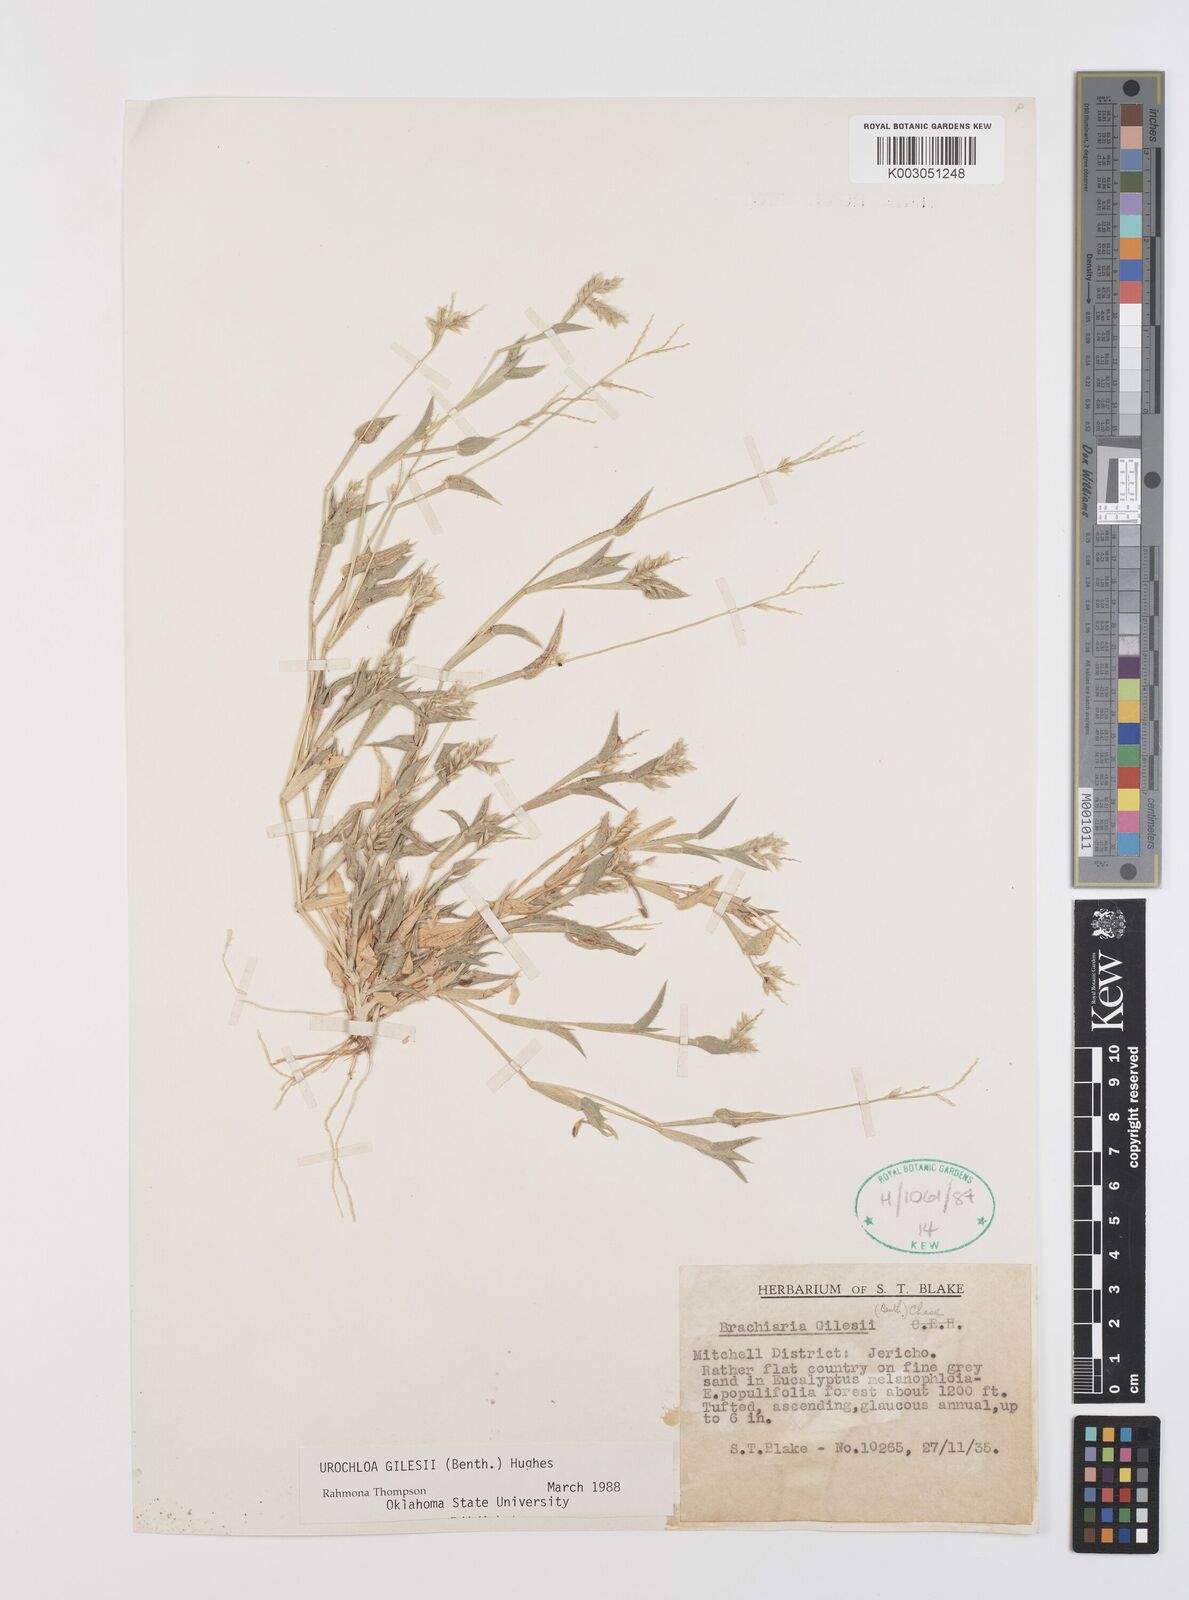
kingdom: Plantae
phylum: Tracheophyta
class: Liliopsida
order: Poales
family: Poaceae
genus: Urochloa
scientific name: Urochloa gilesii
